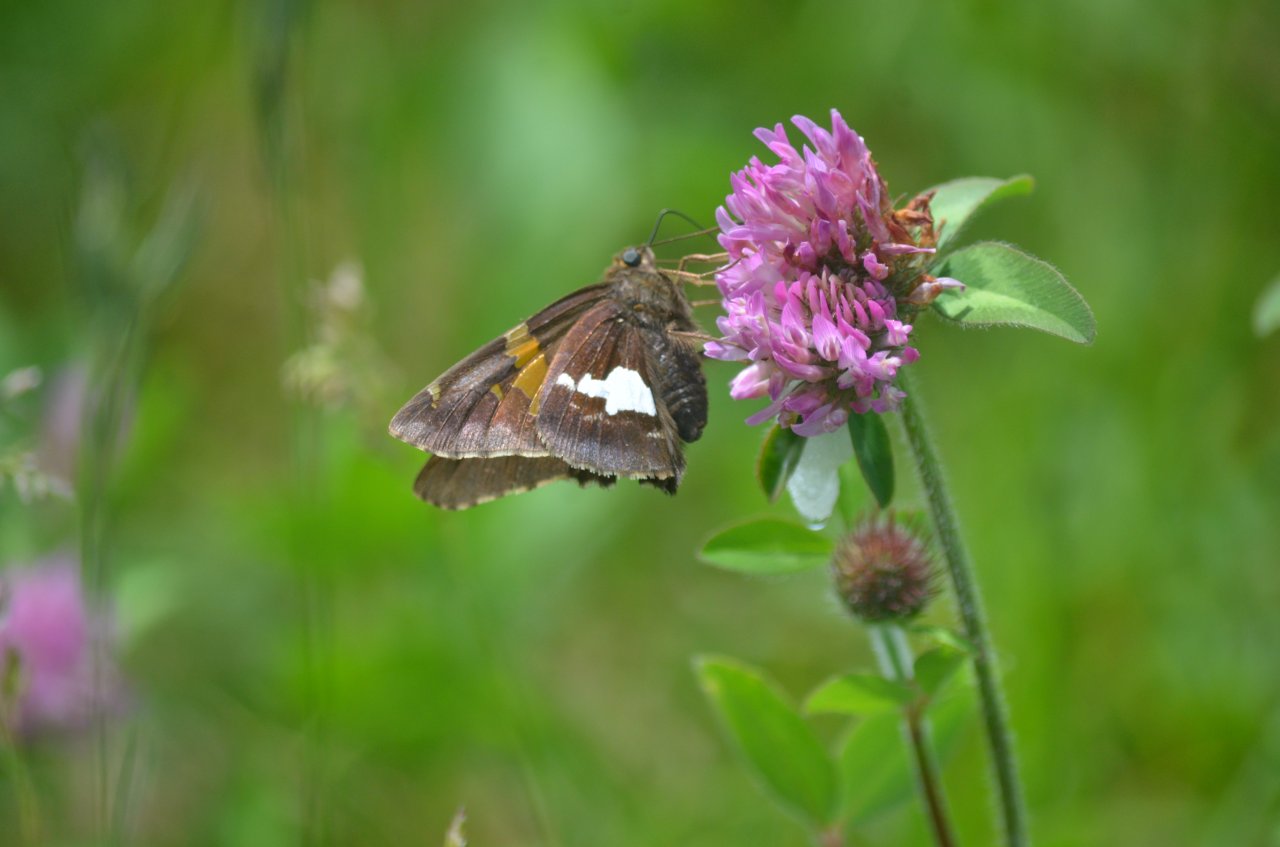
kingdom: Animalia
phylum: Arthropoda
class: Insecta
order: Lepidoptera
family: Hesperiidae
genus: Epargyreus
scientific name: Epargyreus clarus
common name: Silver-spotted Skipper
